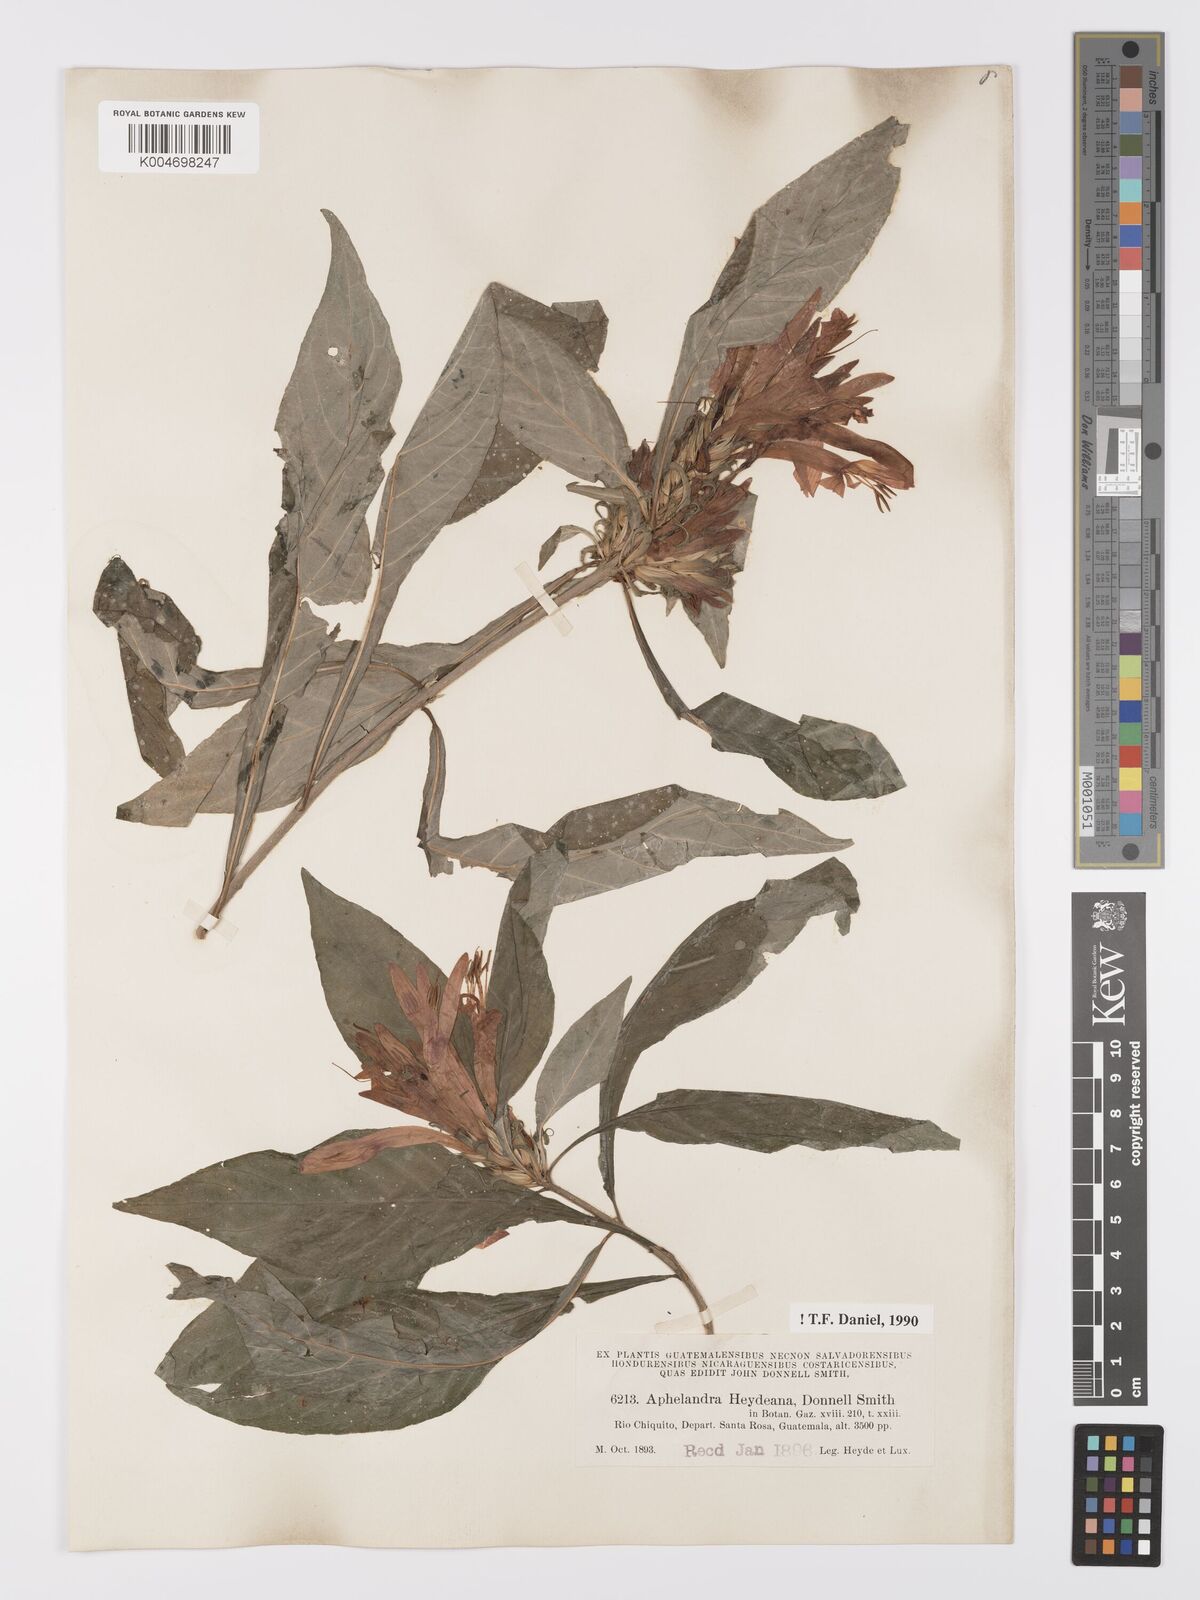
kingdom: Plantae
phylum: Tracheophyta
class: Magnoliopsida
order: Lamiales
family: Acanthaceae
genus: Aphelandra
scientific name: Aphelandra heydeana
